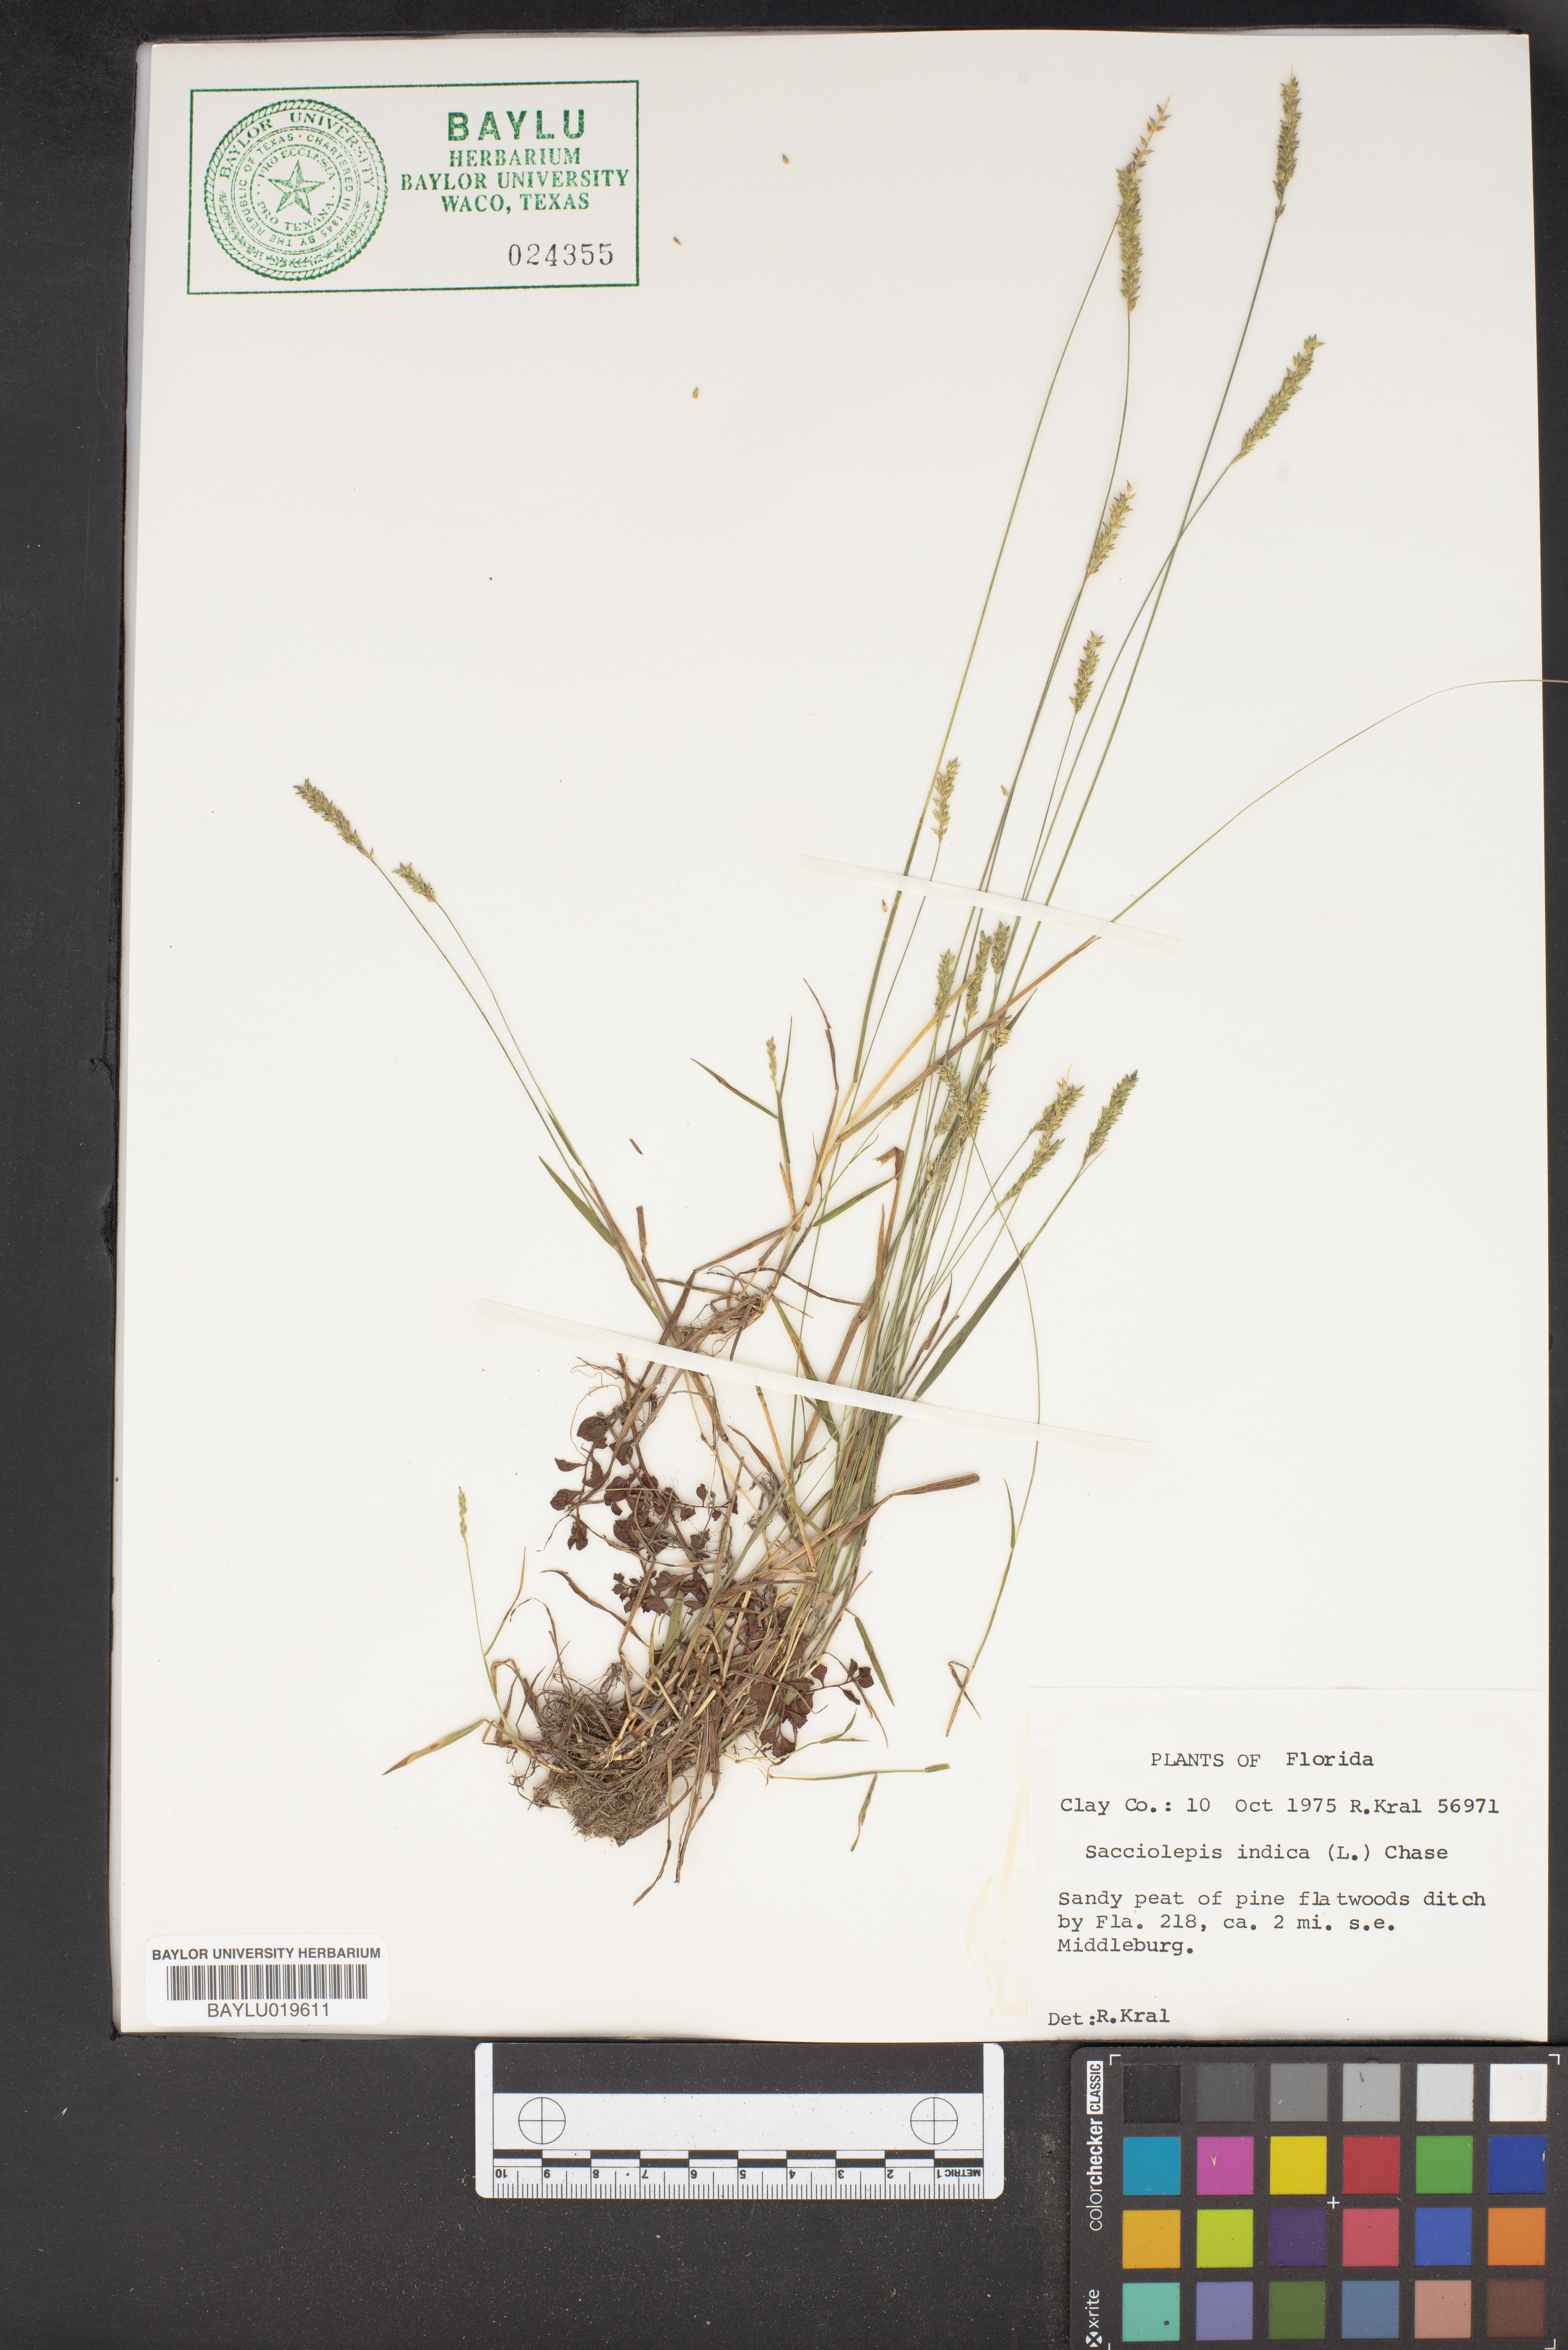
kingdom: Plantae
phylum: Tracheophyta
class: Liliopsida
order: Poales
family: Poaceae
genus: Sacciolepis
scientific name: Sacciolepis indica
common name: Glenwoodgrass
